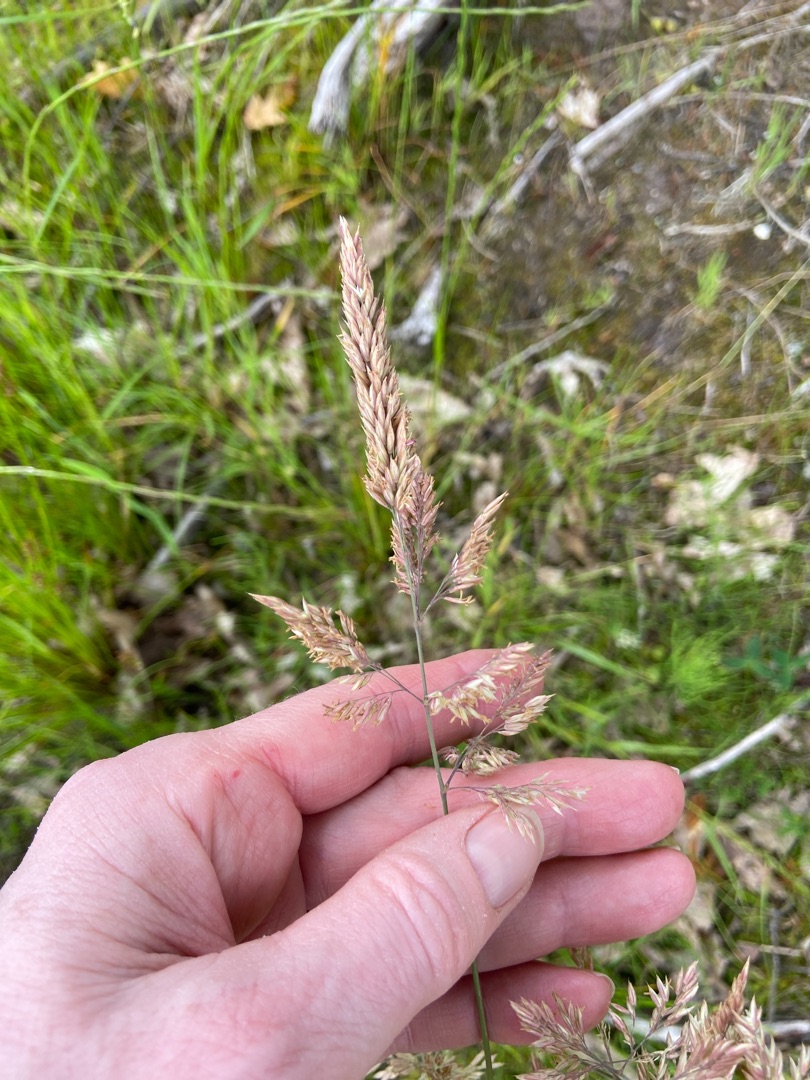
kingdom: Plantae
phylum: Tracheophyta
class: Liliopsida
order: Poales
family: Poaceae
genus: Holcus
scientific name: Holcus lanatus
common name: Fløjlsgræs
